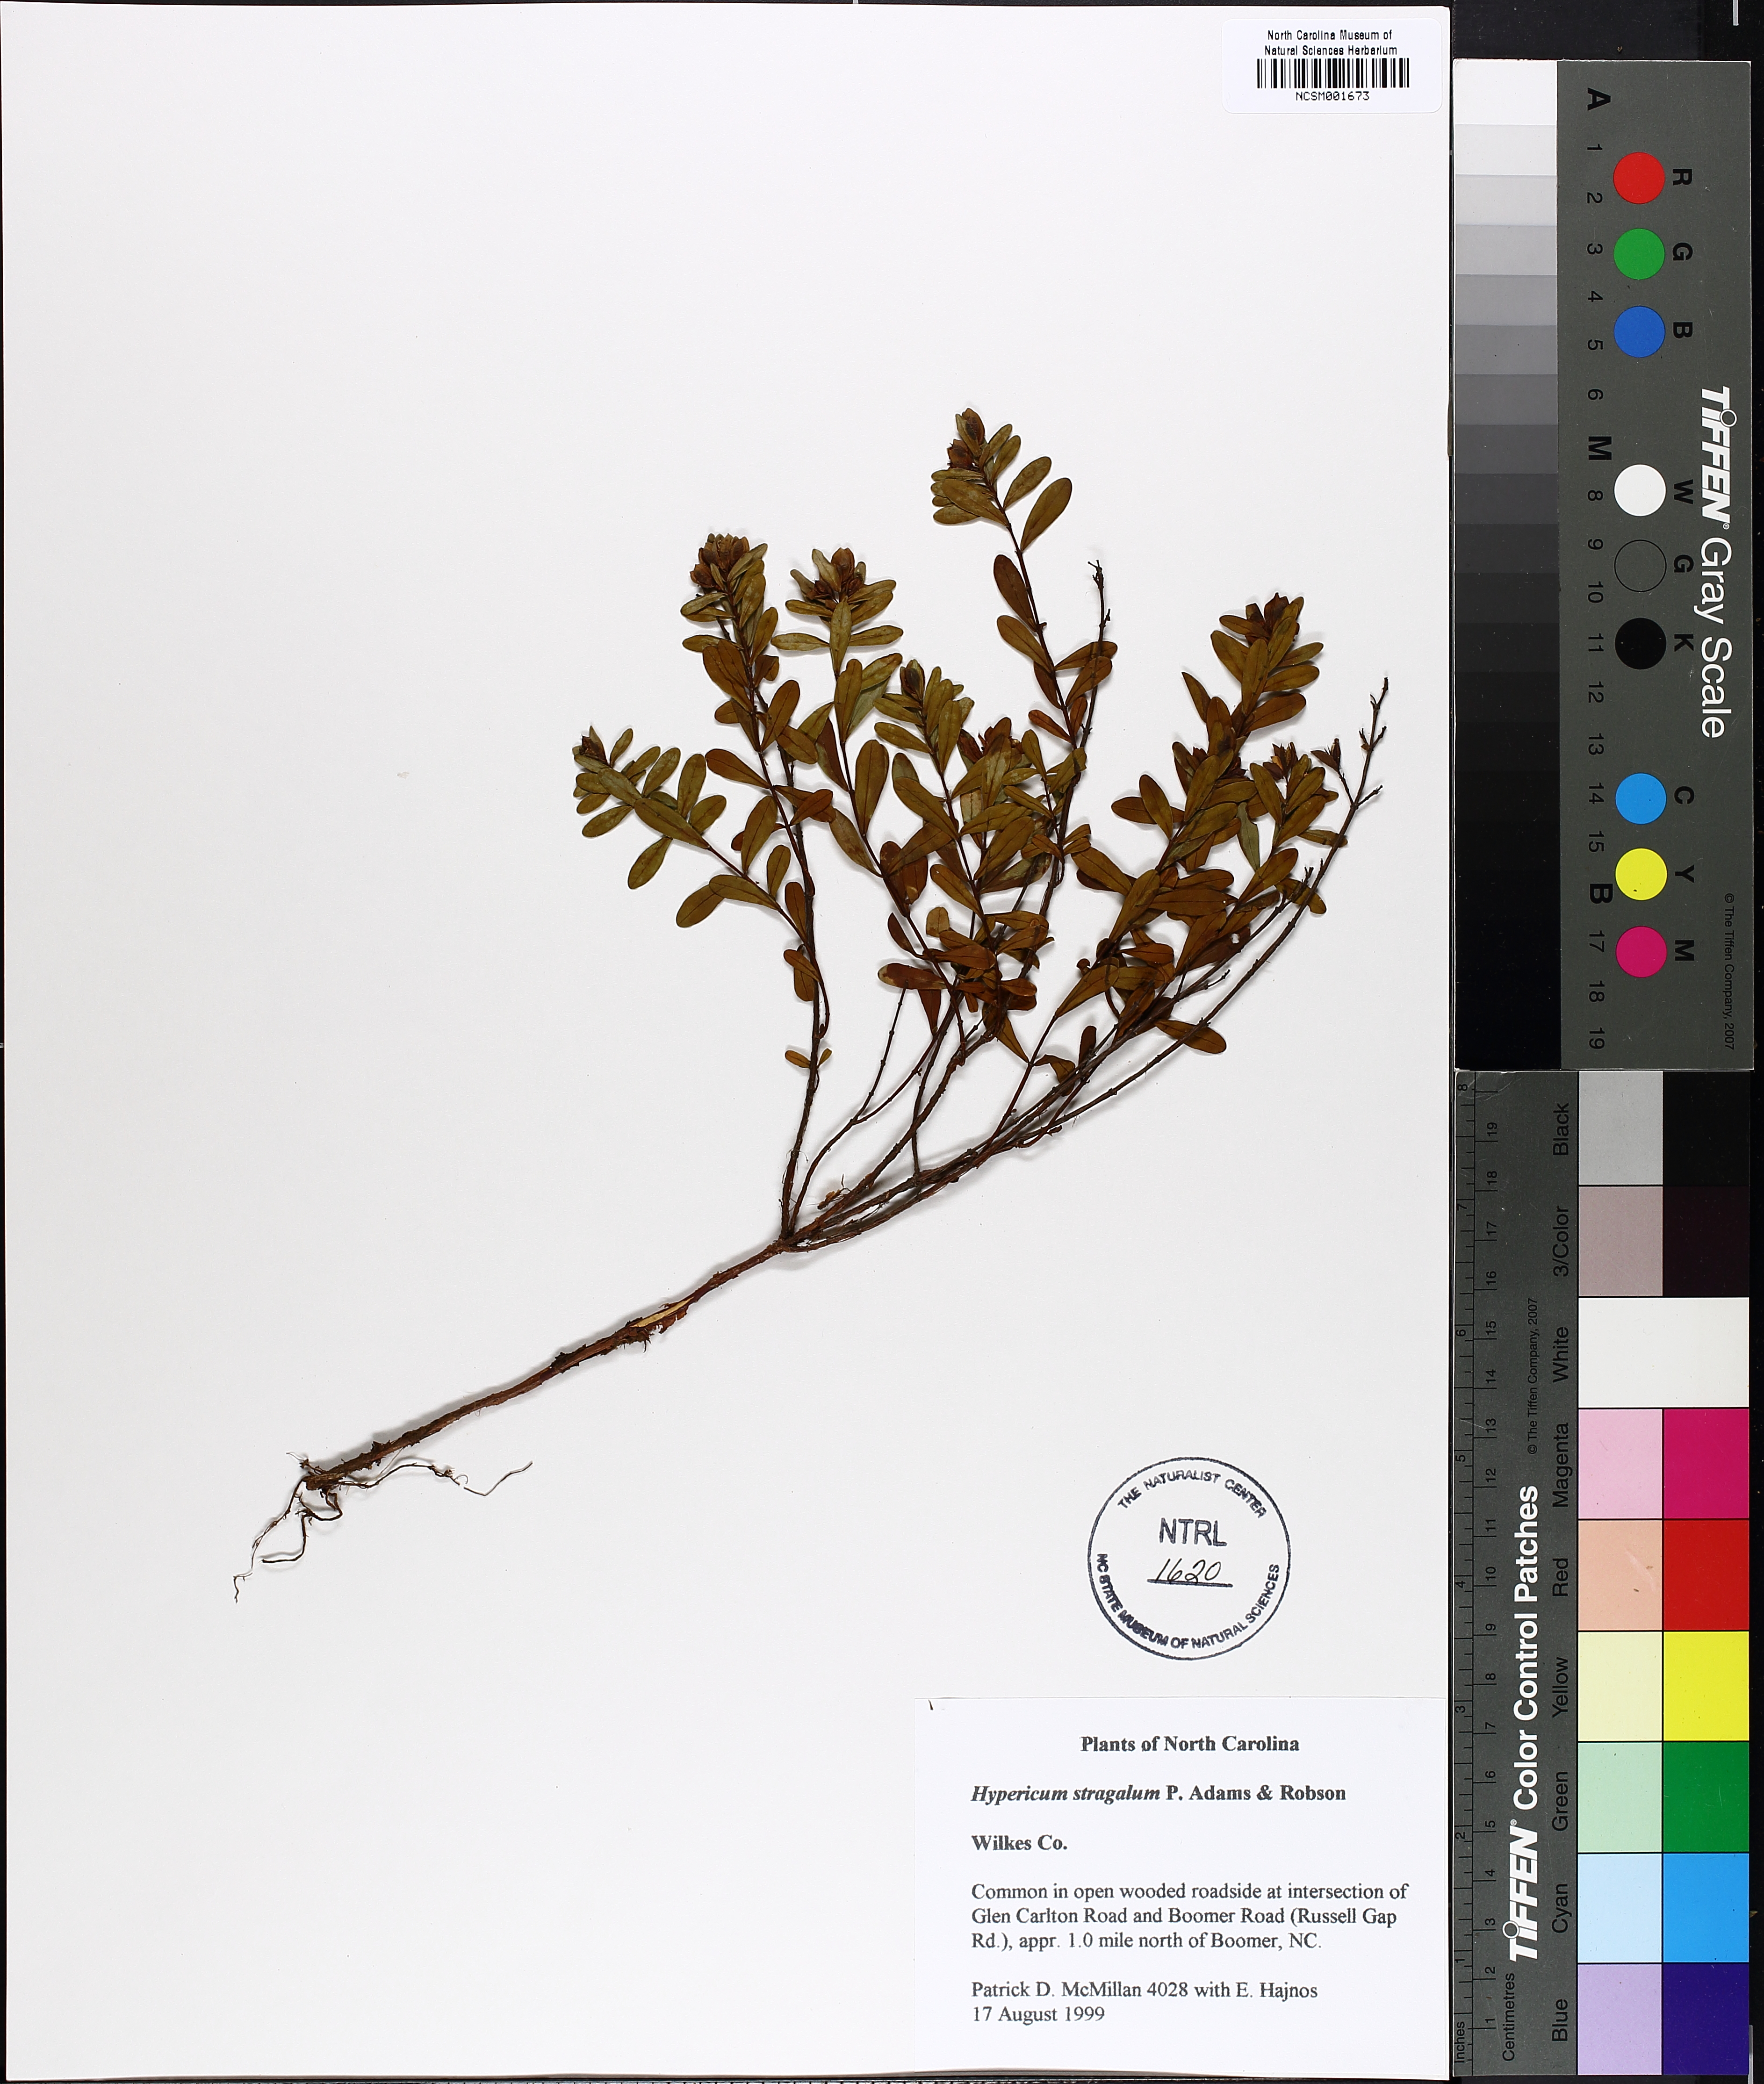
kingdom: Plantae
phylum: Tracheophyta
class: Magnoliopsida
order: Malpighiales
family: Hypericaceae
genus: Hypericum
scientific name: Hypericum hypericoides
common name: St. andrew's cross
